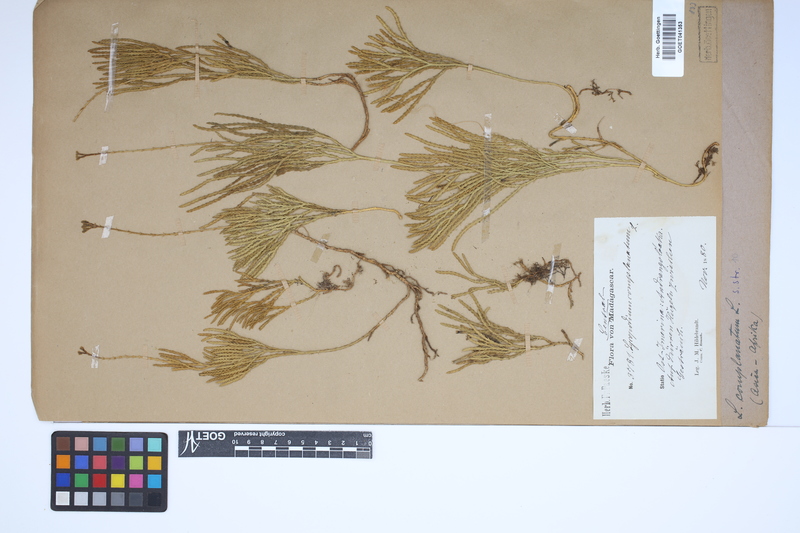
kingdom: Plantae
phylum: Tracheophyta
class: Lycopodiopsida
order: Lycopodiales
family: Lycopodiaceae
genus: Diphasiastrum
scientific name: Diphasiastrum complanatum
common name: Northern running-pine
